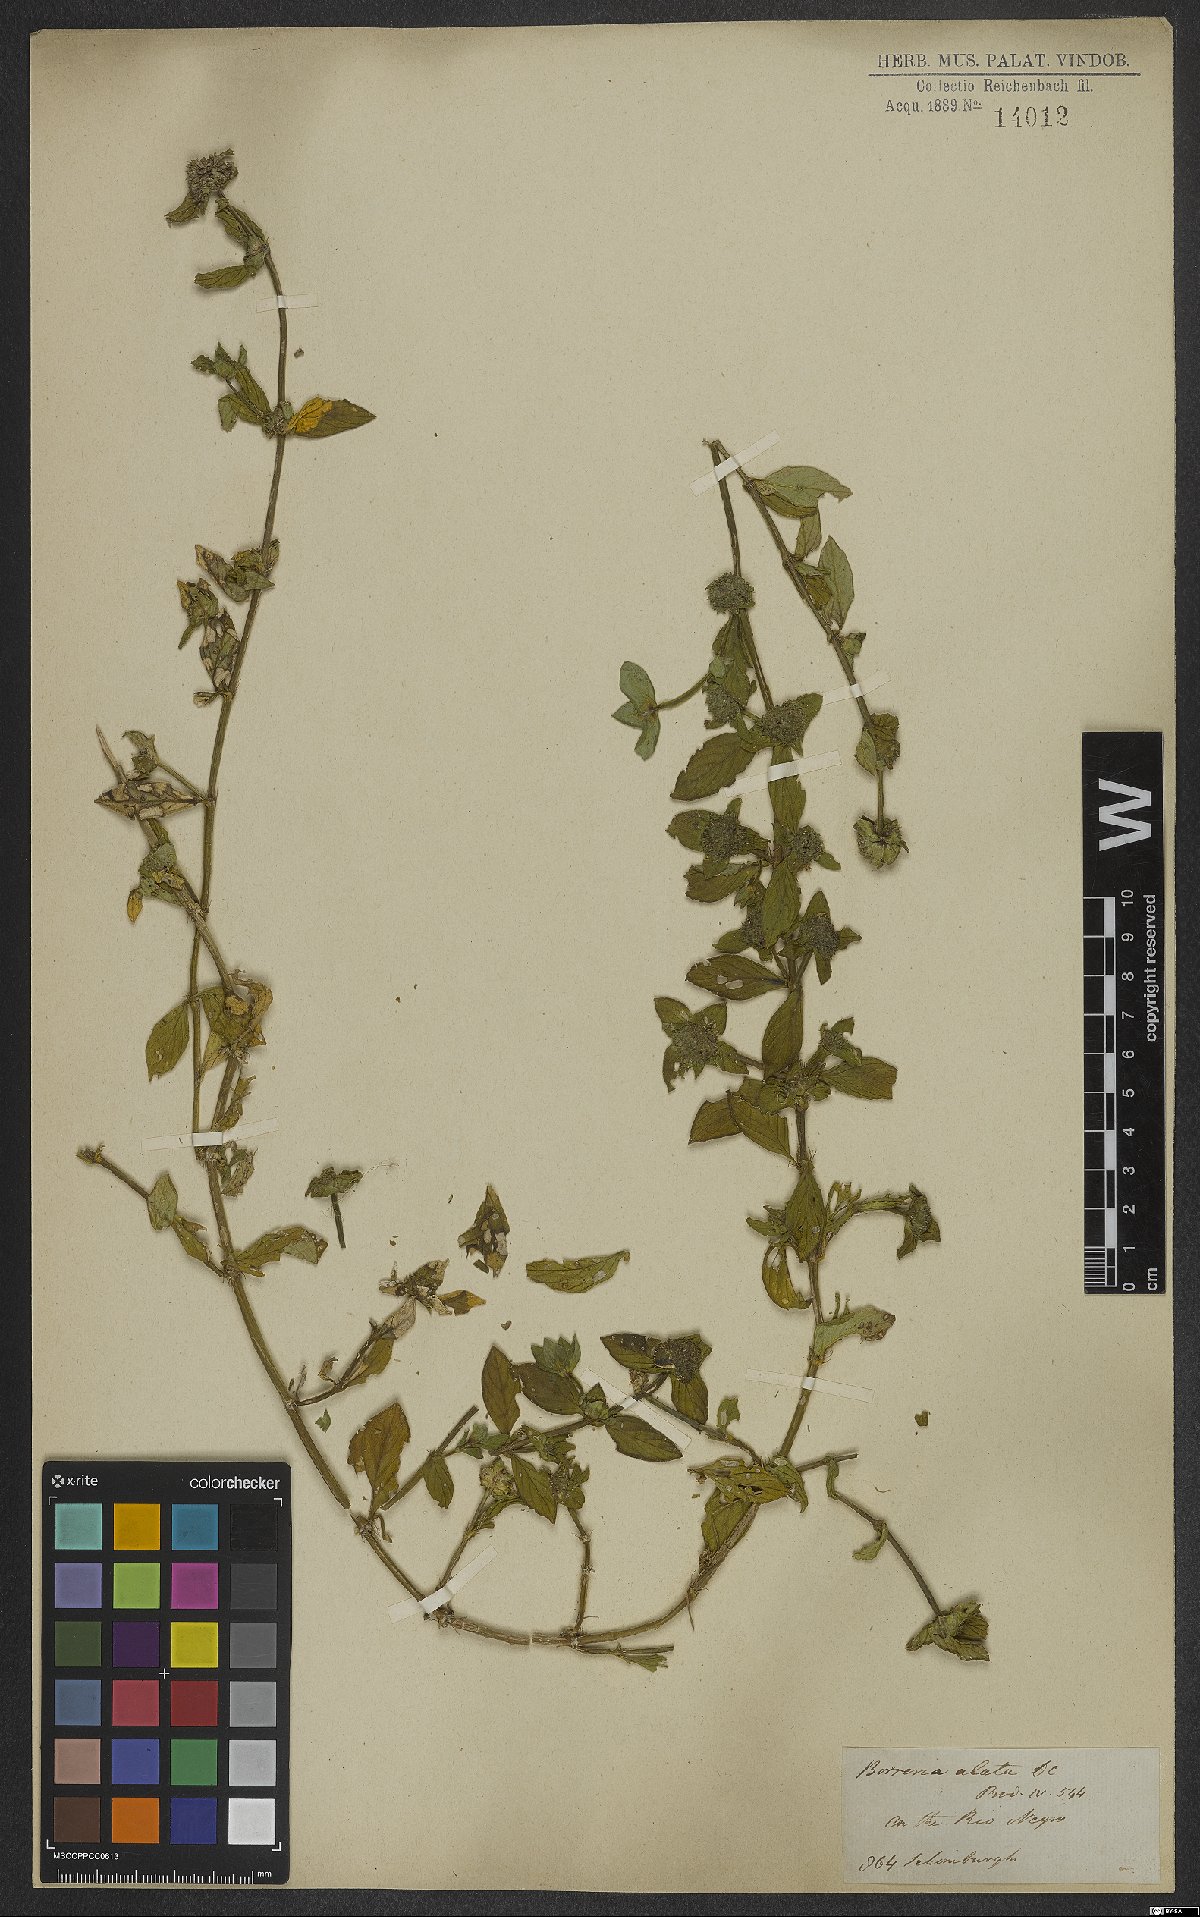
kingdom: Plantae
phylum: Tracheophyta
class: Magnoliopsida
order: Gentianales
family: Rubiaceae
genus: Spermacoce
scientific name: Spermacoce alata
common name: Winged false buttonweed
